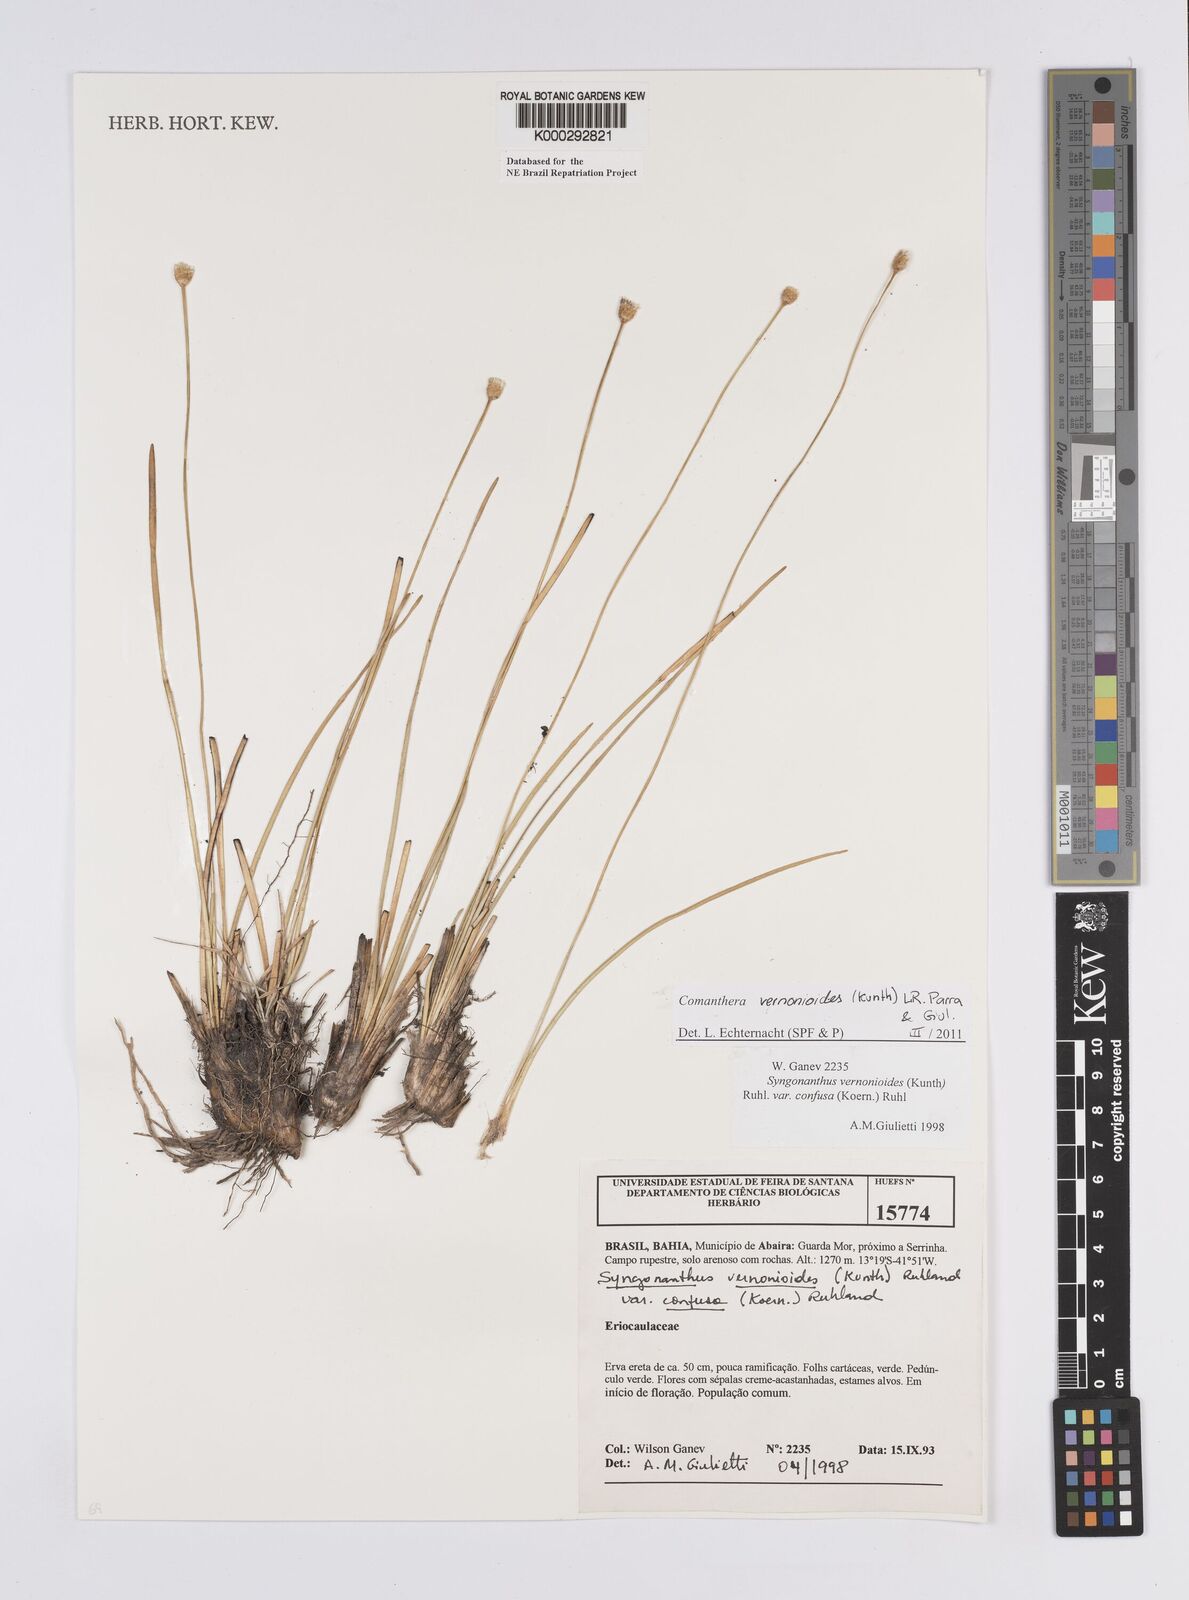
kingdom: Plantae
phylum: Tracheophyta
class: Liliopsida
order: Poales
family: Eriocaulaceae
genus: Comanthera
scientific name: Comanthera centauroides
